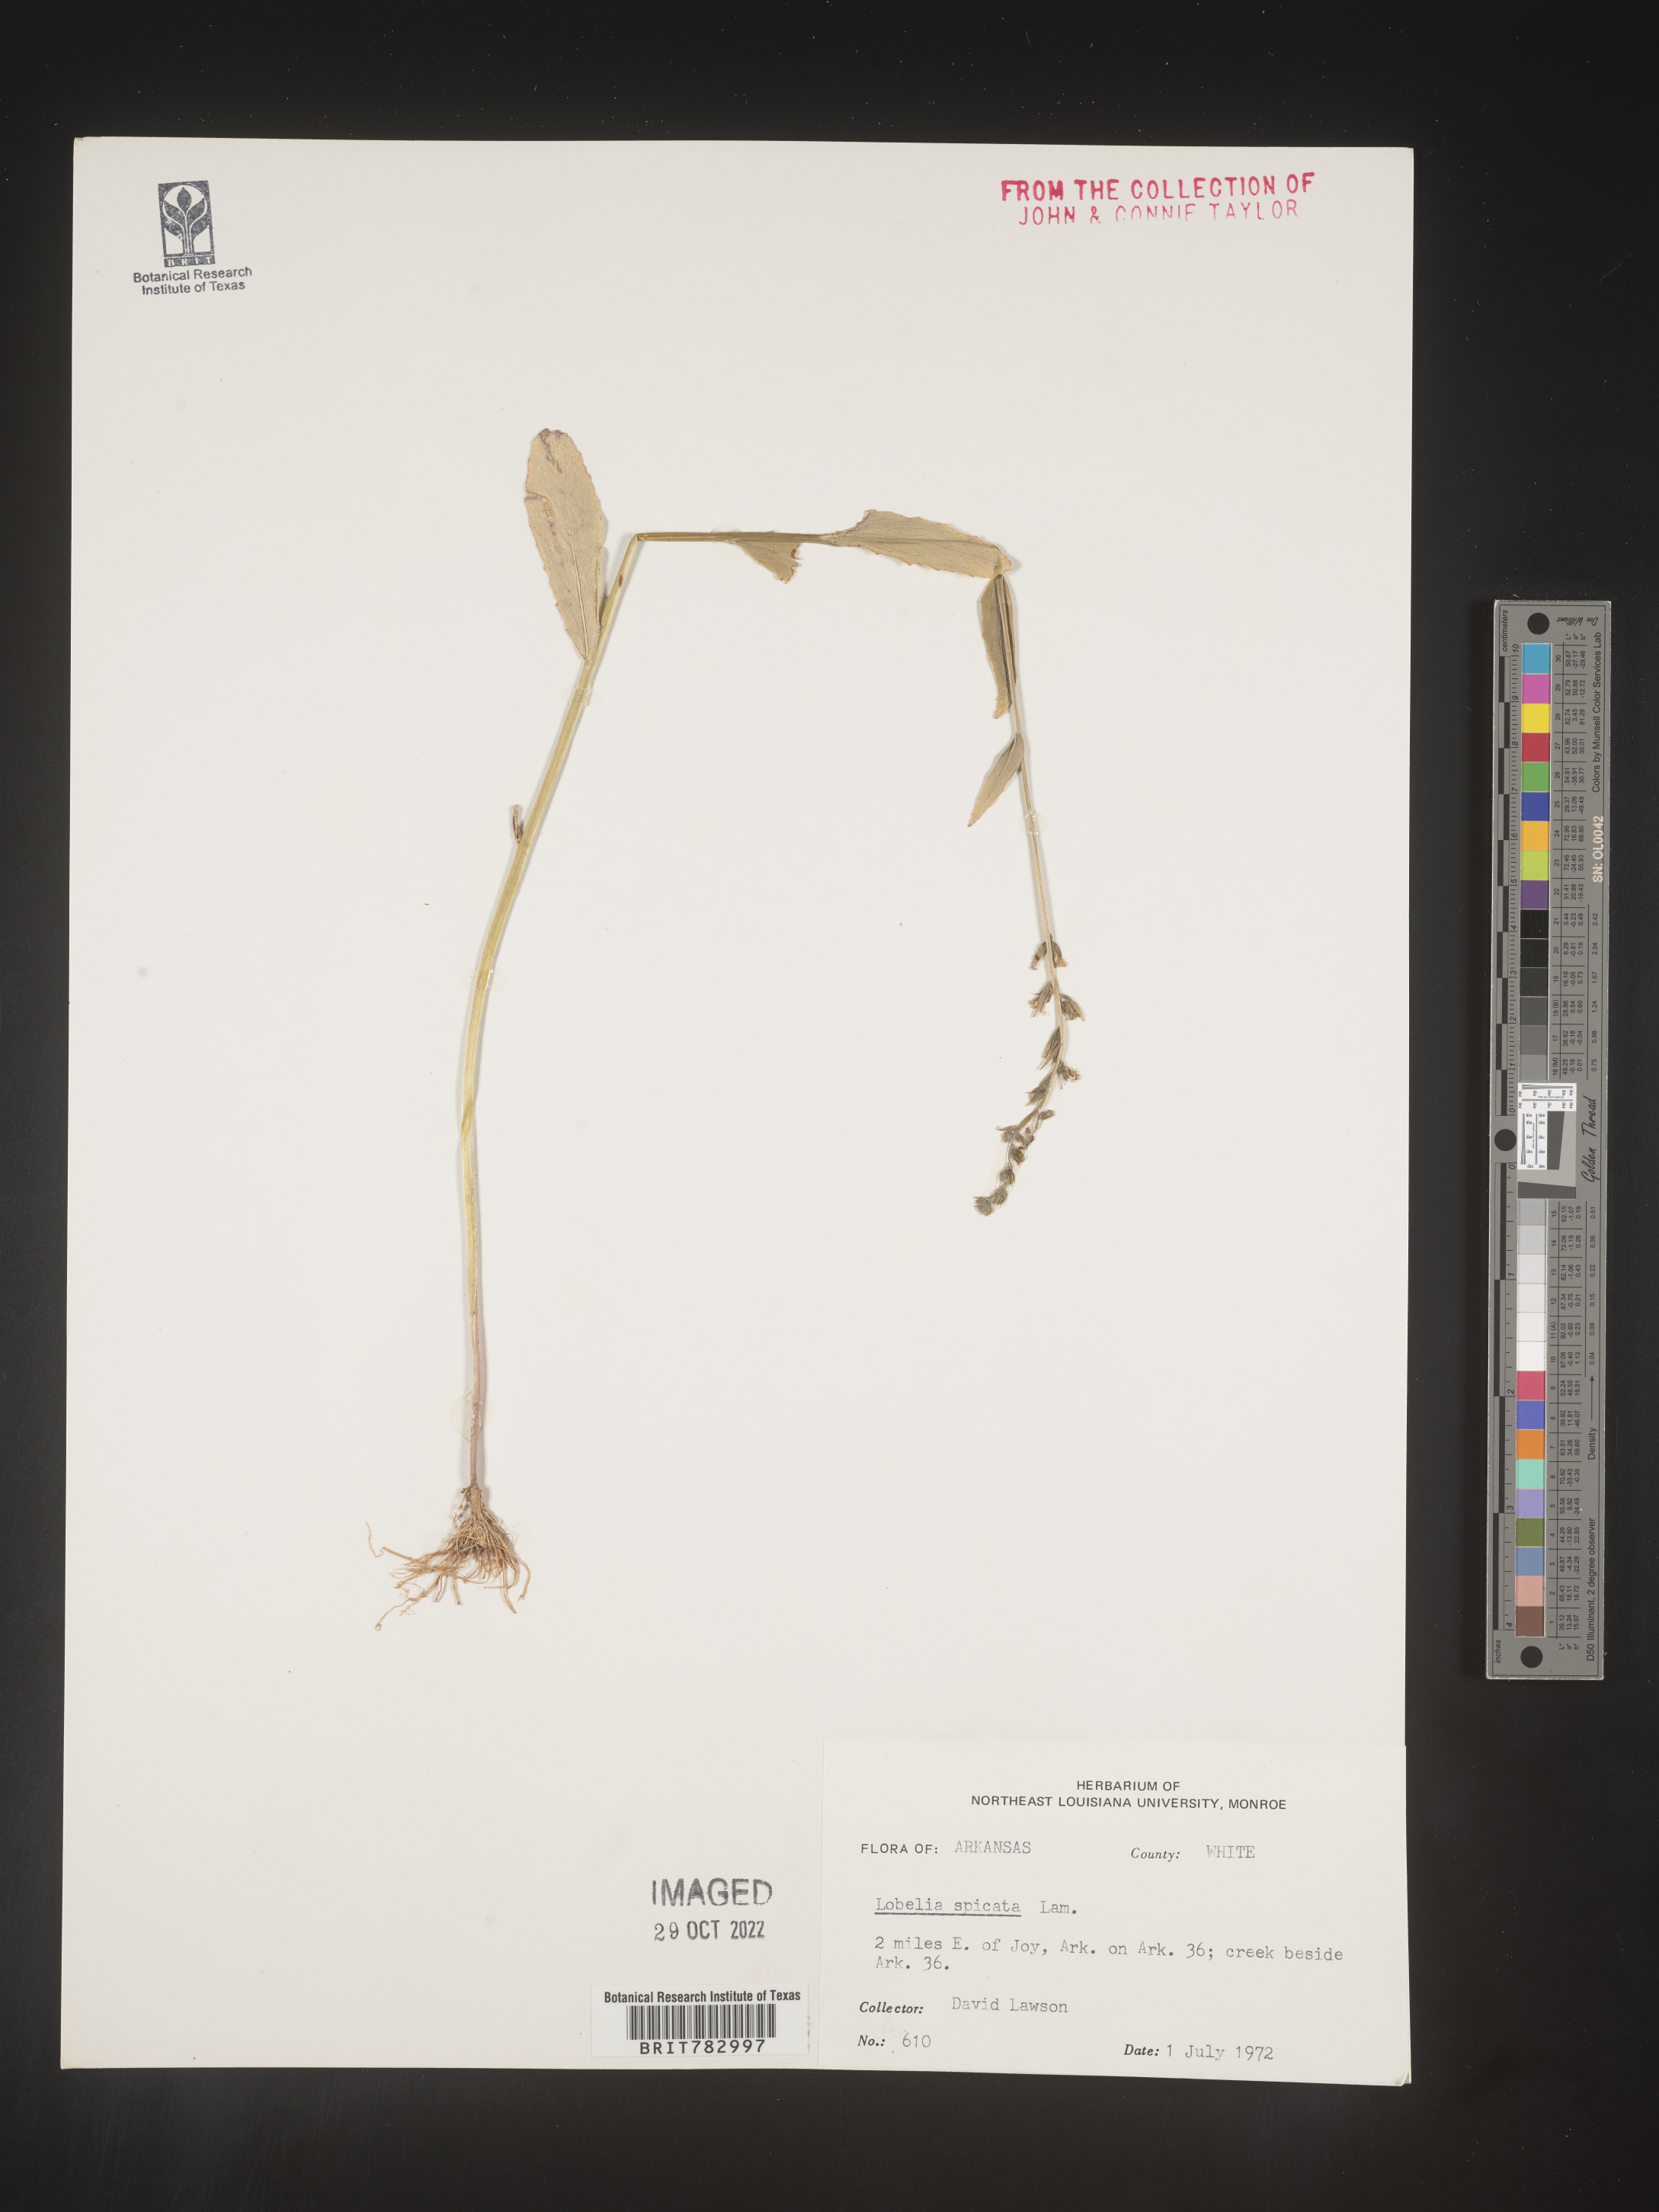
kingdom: Plantae
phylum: Tracheophyta
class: Magnoliopsida
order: Asterales
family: Campanulaceae
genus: Lobelia
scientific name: Lobelia spicata
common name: Pale-spike lobelia
